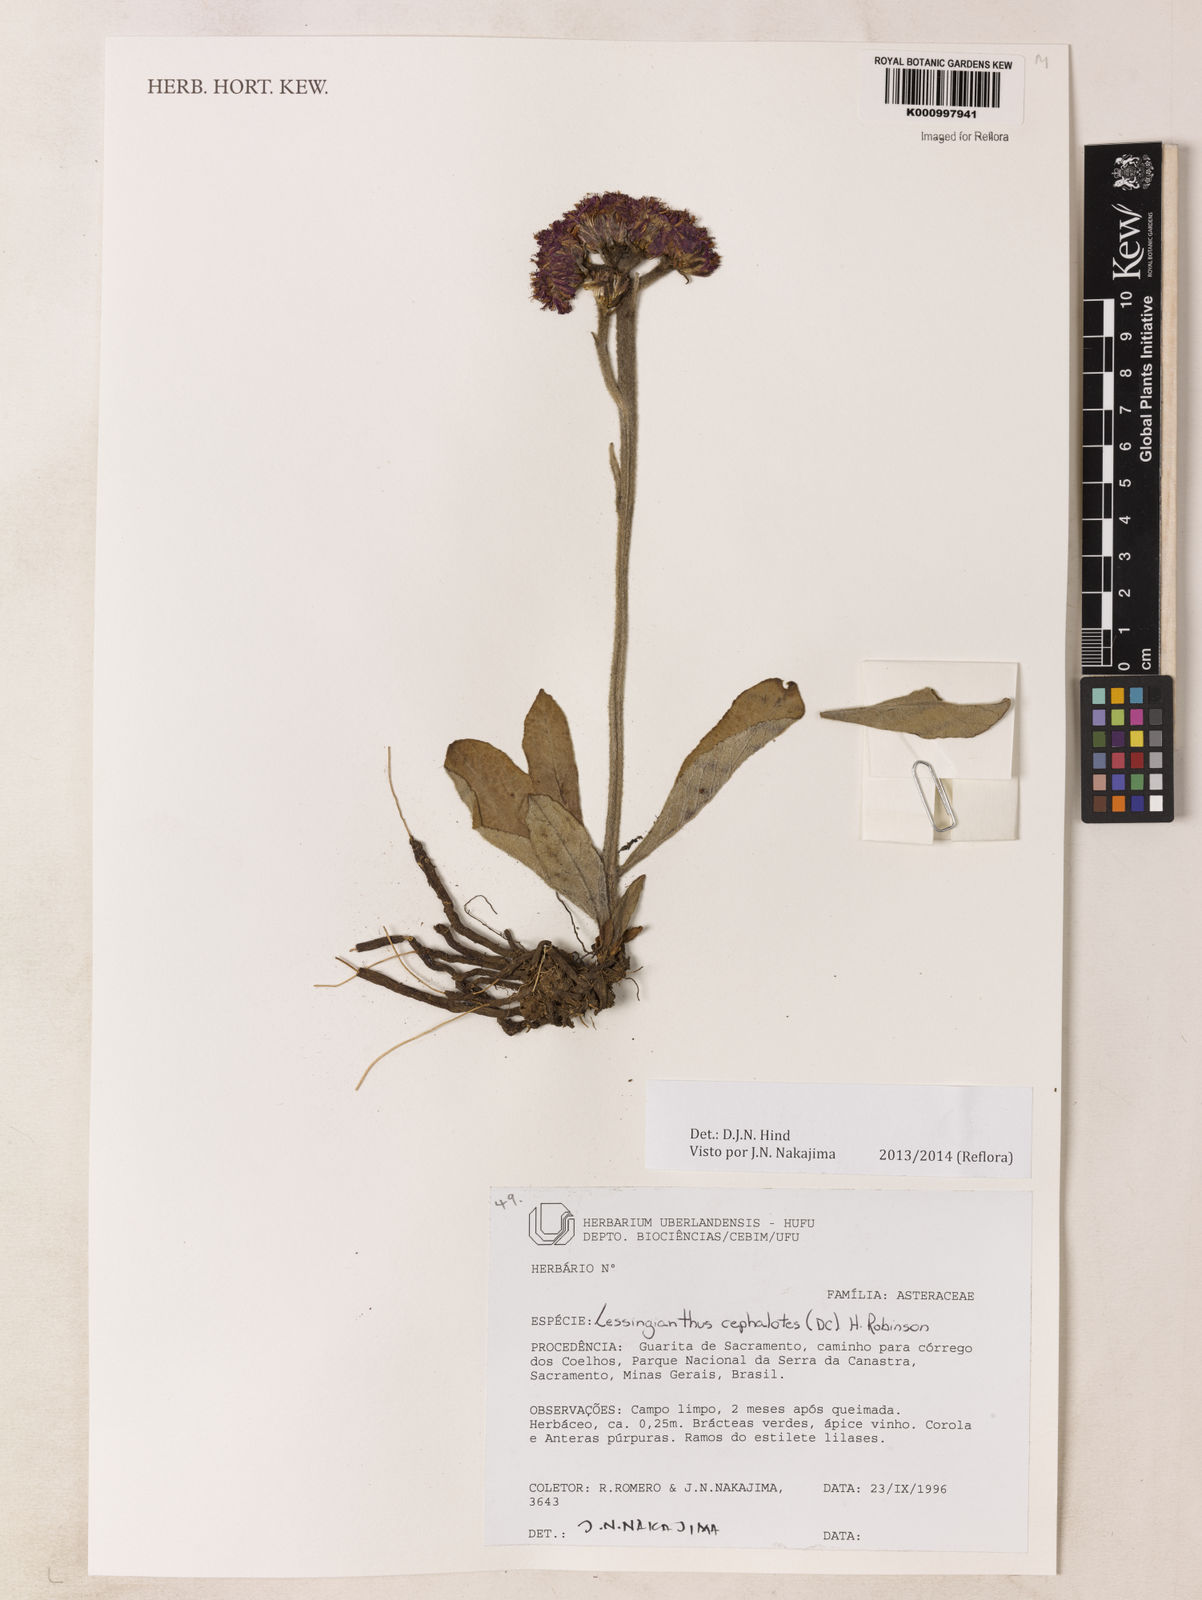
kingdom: Plantae
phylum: Tracheophyta
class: Magnoliopsida
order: Asterales
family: Asteraceae
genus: Lessingianthus
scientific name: Lessingianthus cephalotes
